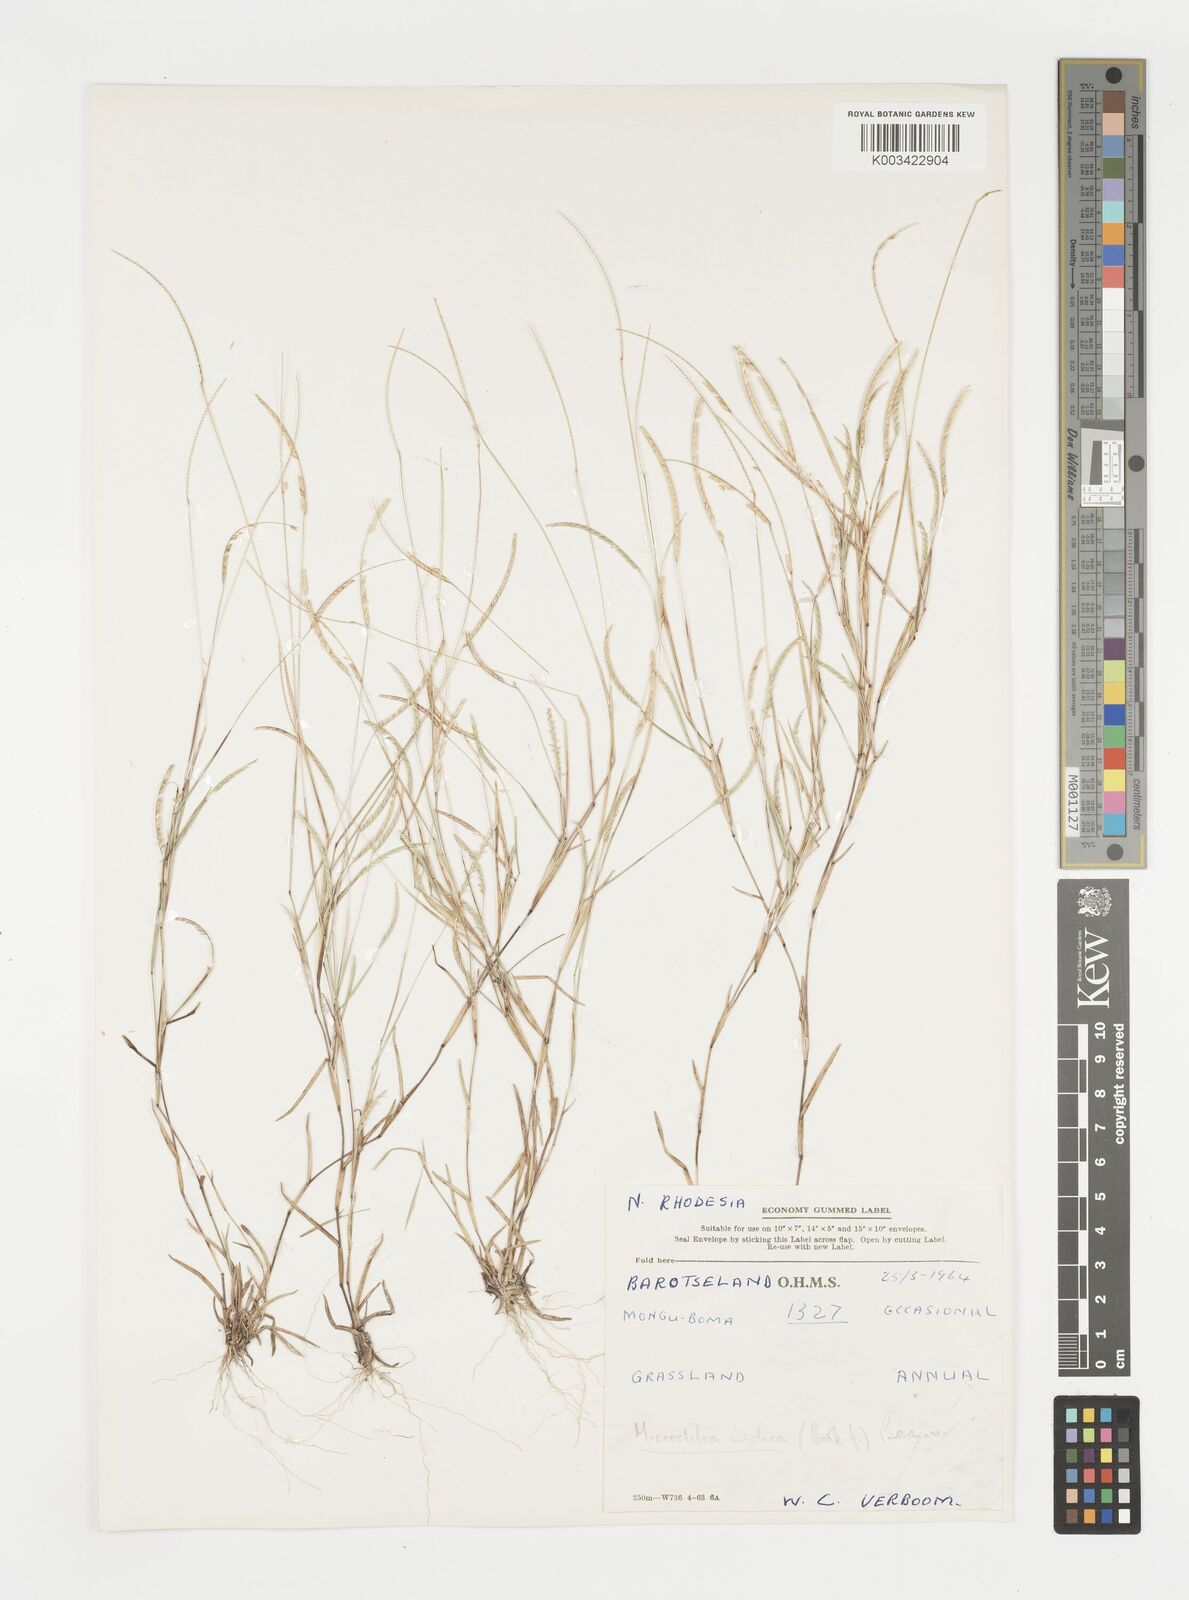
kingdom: Plantae
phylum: Tracheophyta
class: Liliopsida
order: Poales
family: Poaceae
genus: Microchloa
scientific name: Microchloa annua
